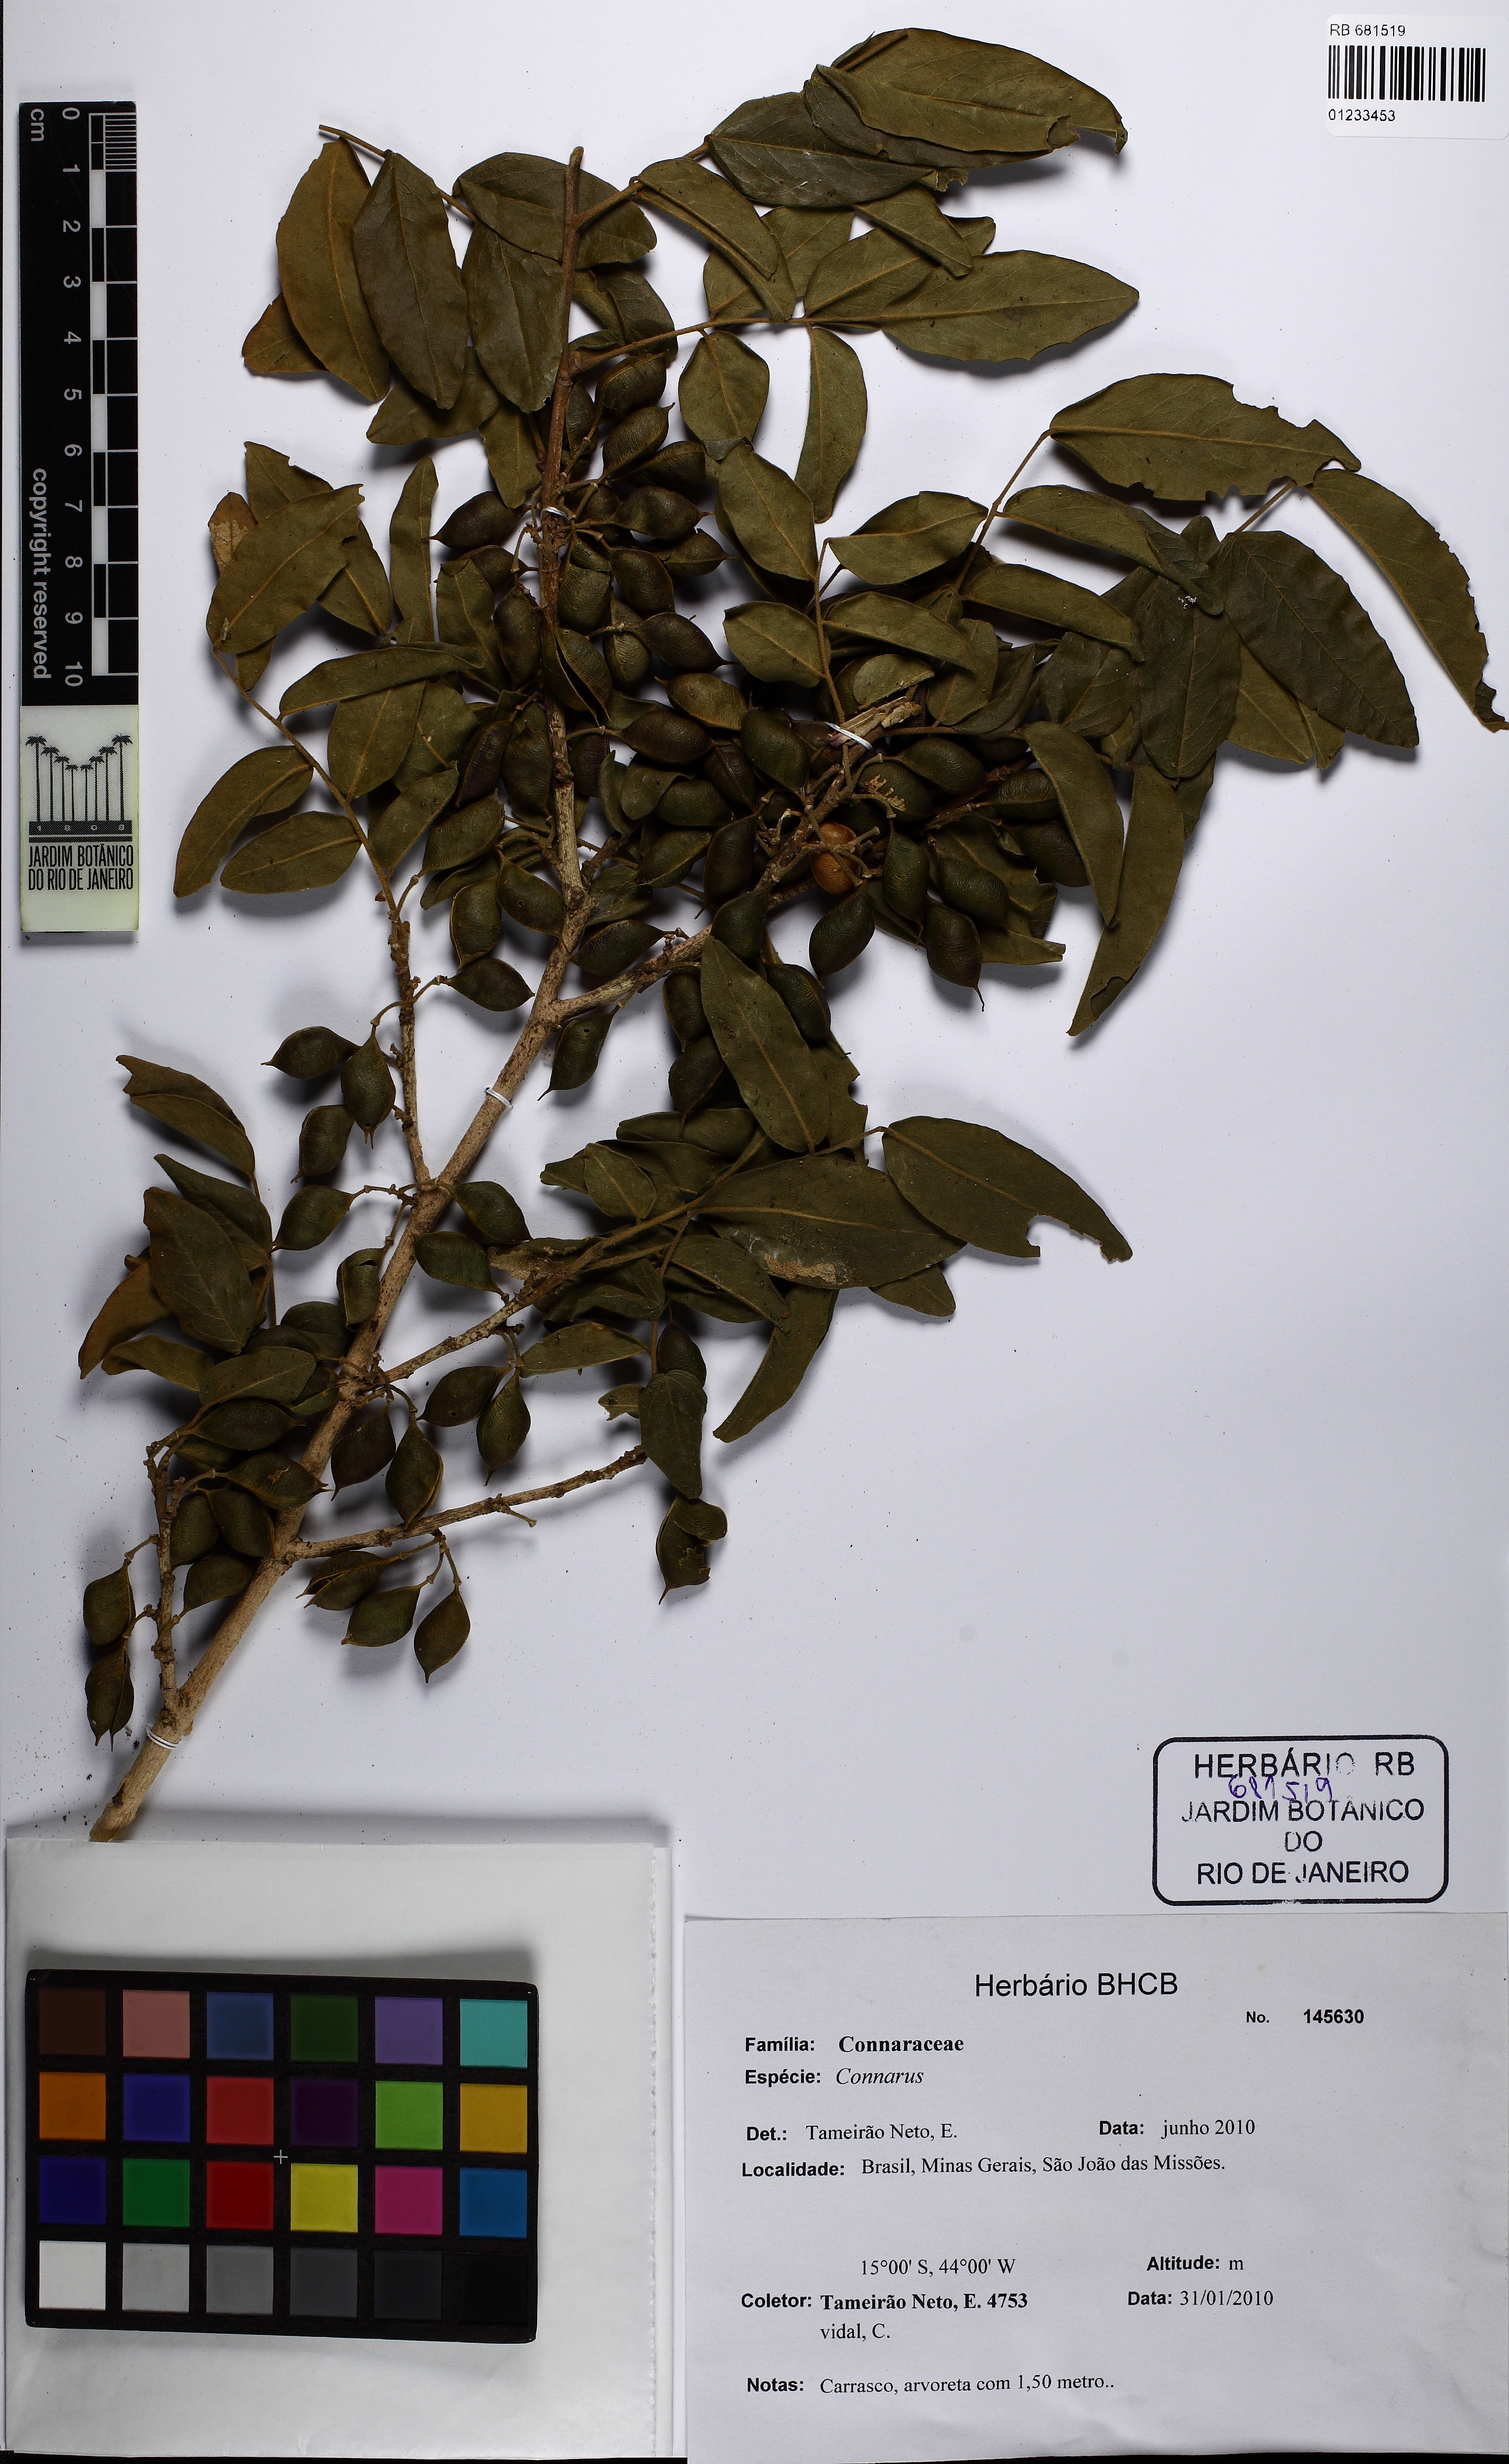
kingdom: Plantae
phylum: Tracheophyta
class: Magnoliopsida
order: Oxalidales
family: Connaraceae
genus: Connarus
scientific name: Connarus
